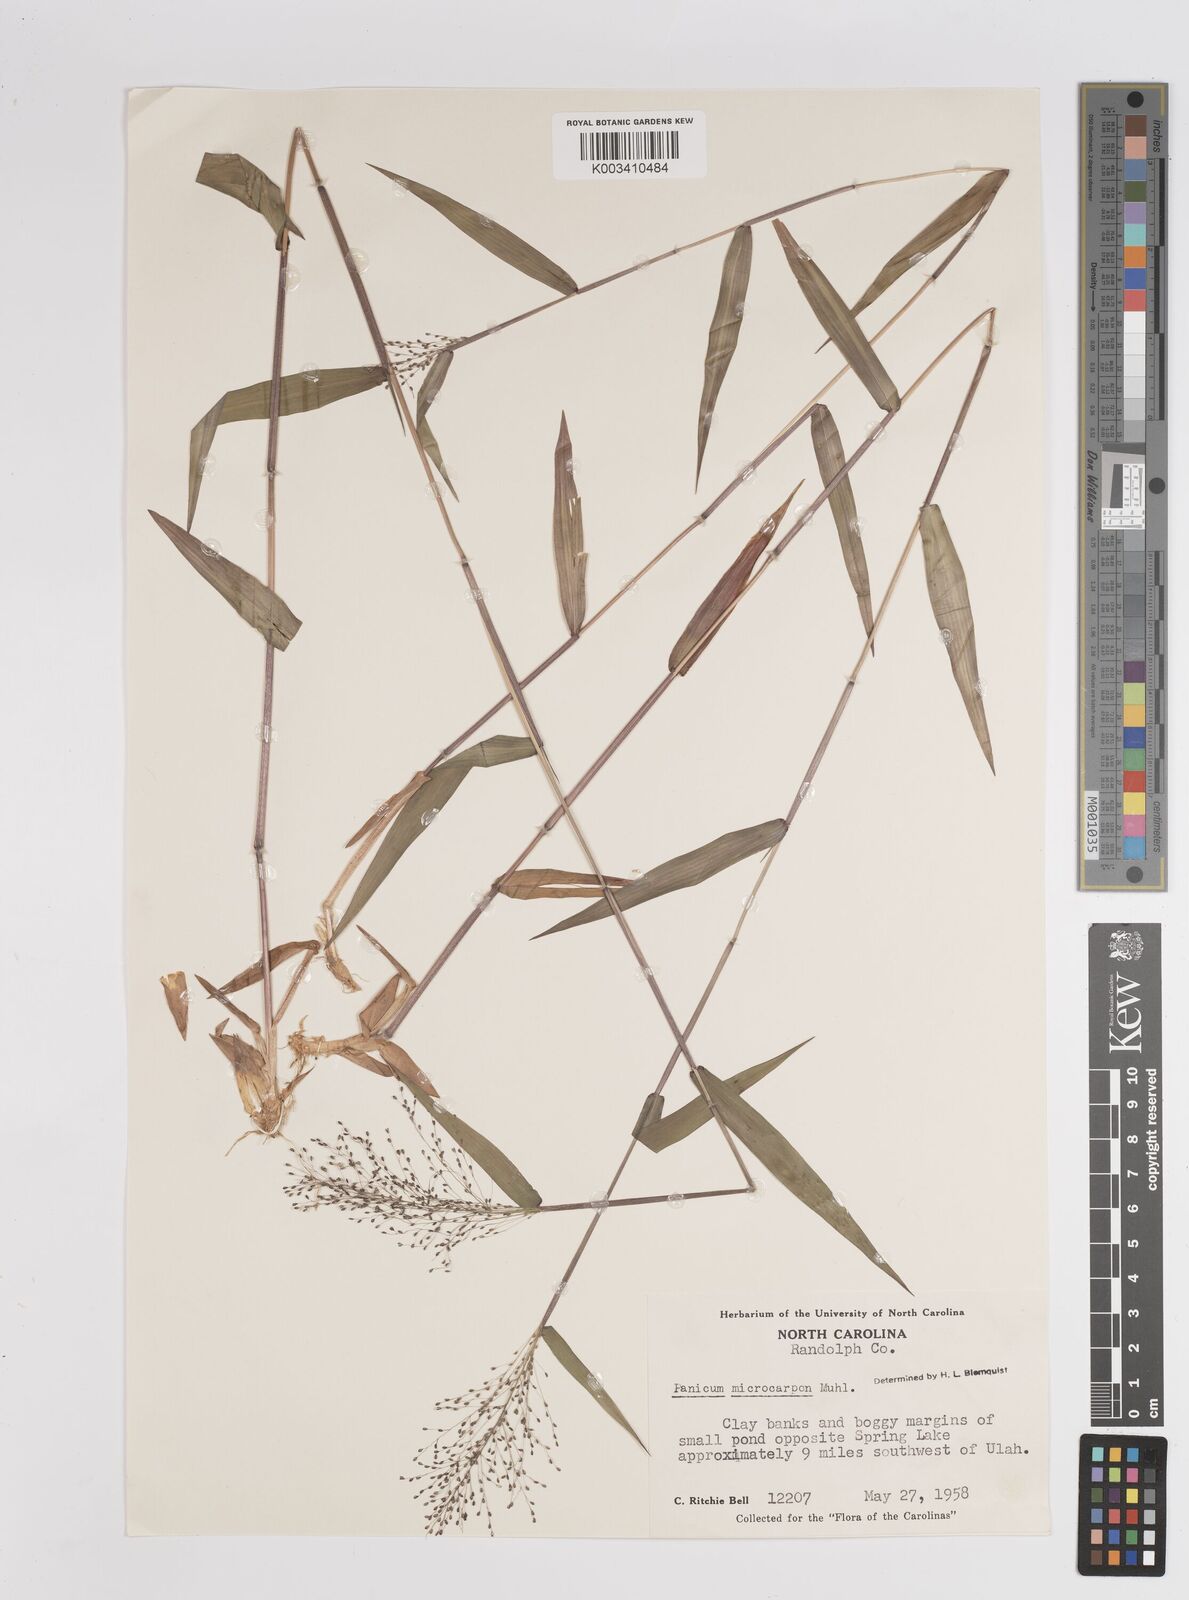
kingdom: Plantae
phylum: Tracheophyta
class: Liliopsida
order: Poales
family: Poaceae
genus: Dichanthelium
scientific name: Dichanthelium polyanthes
